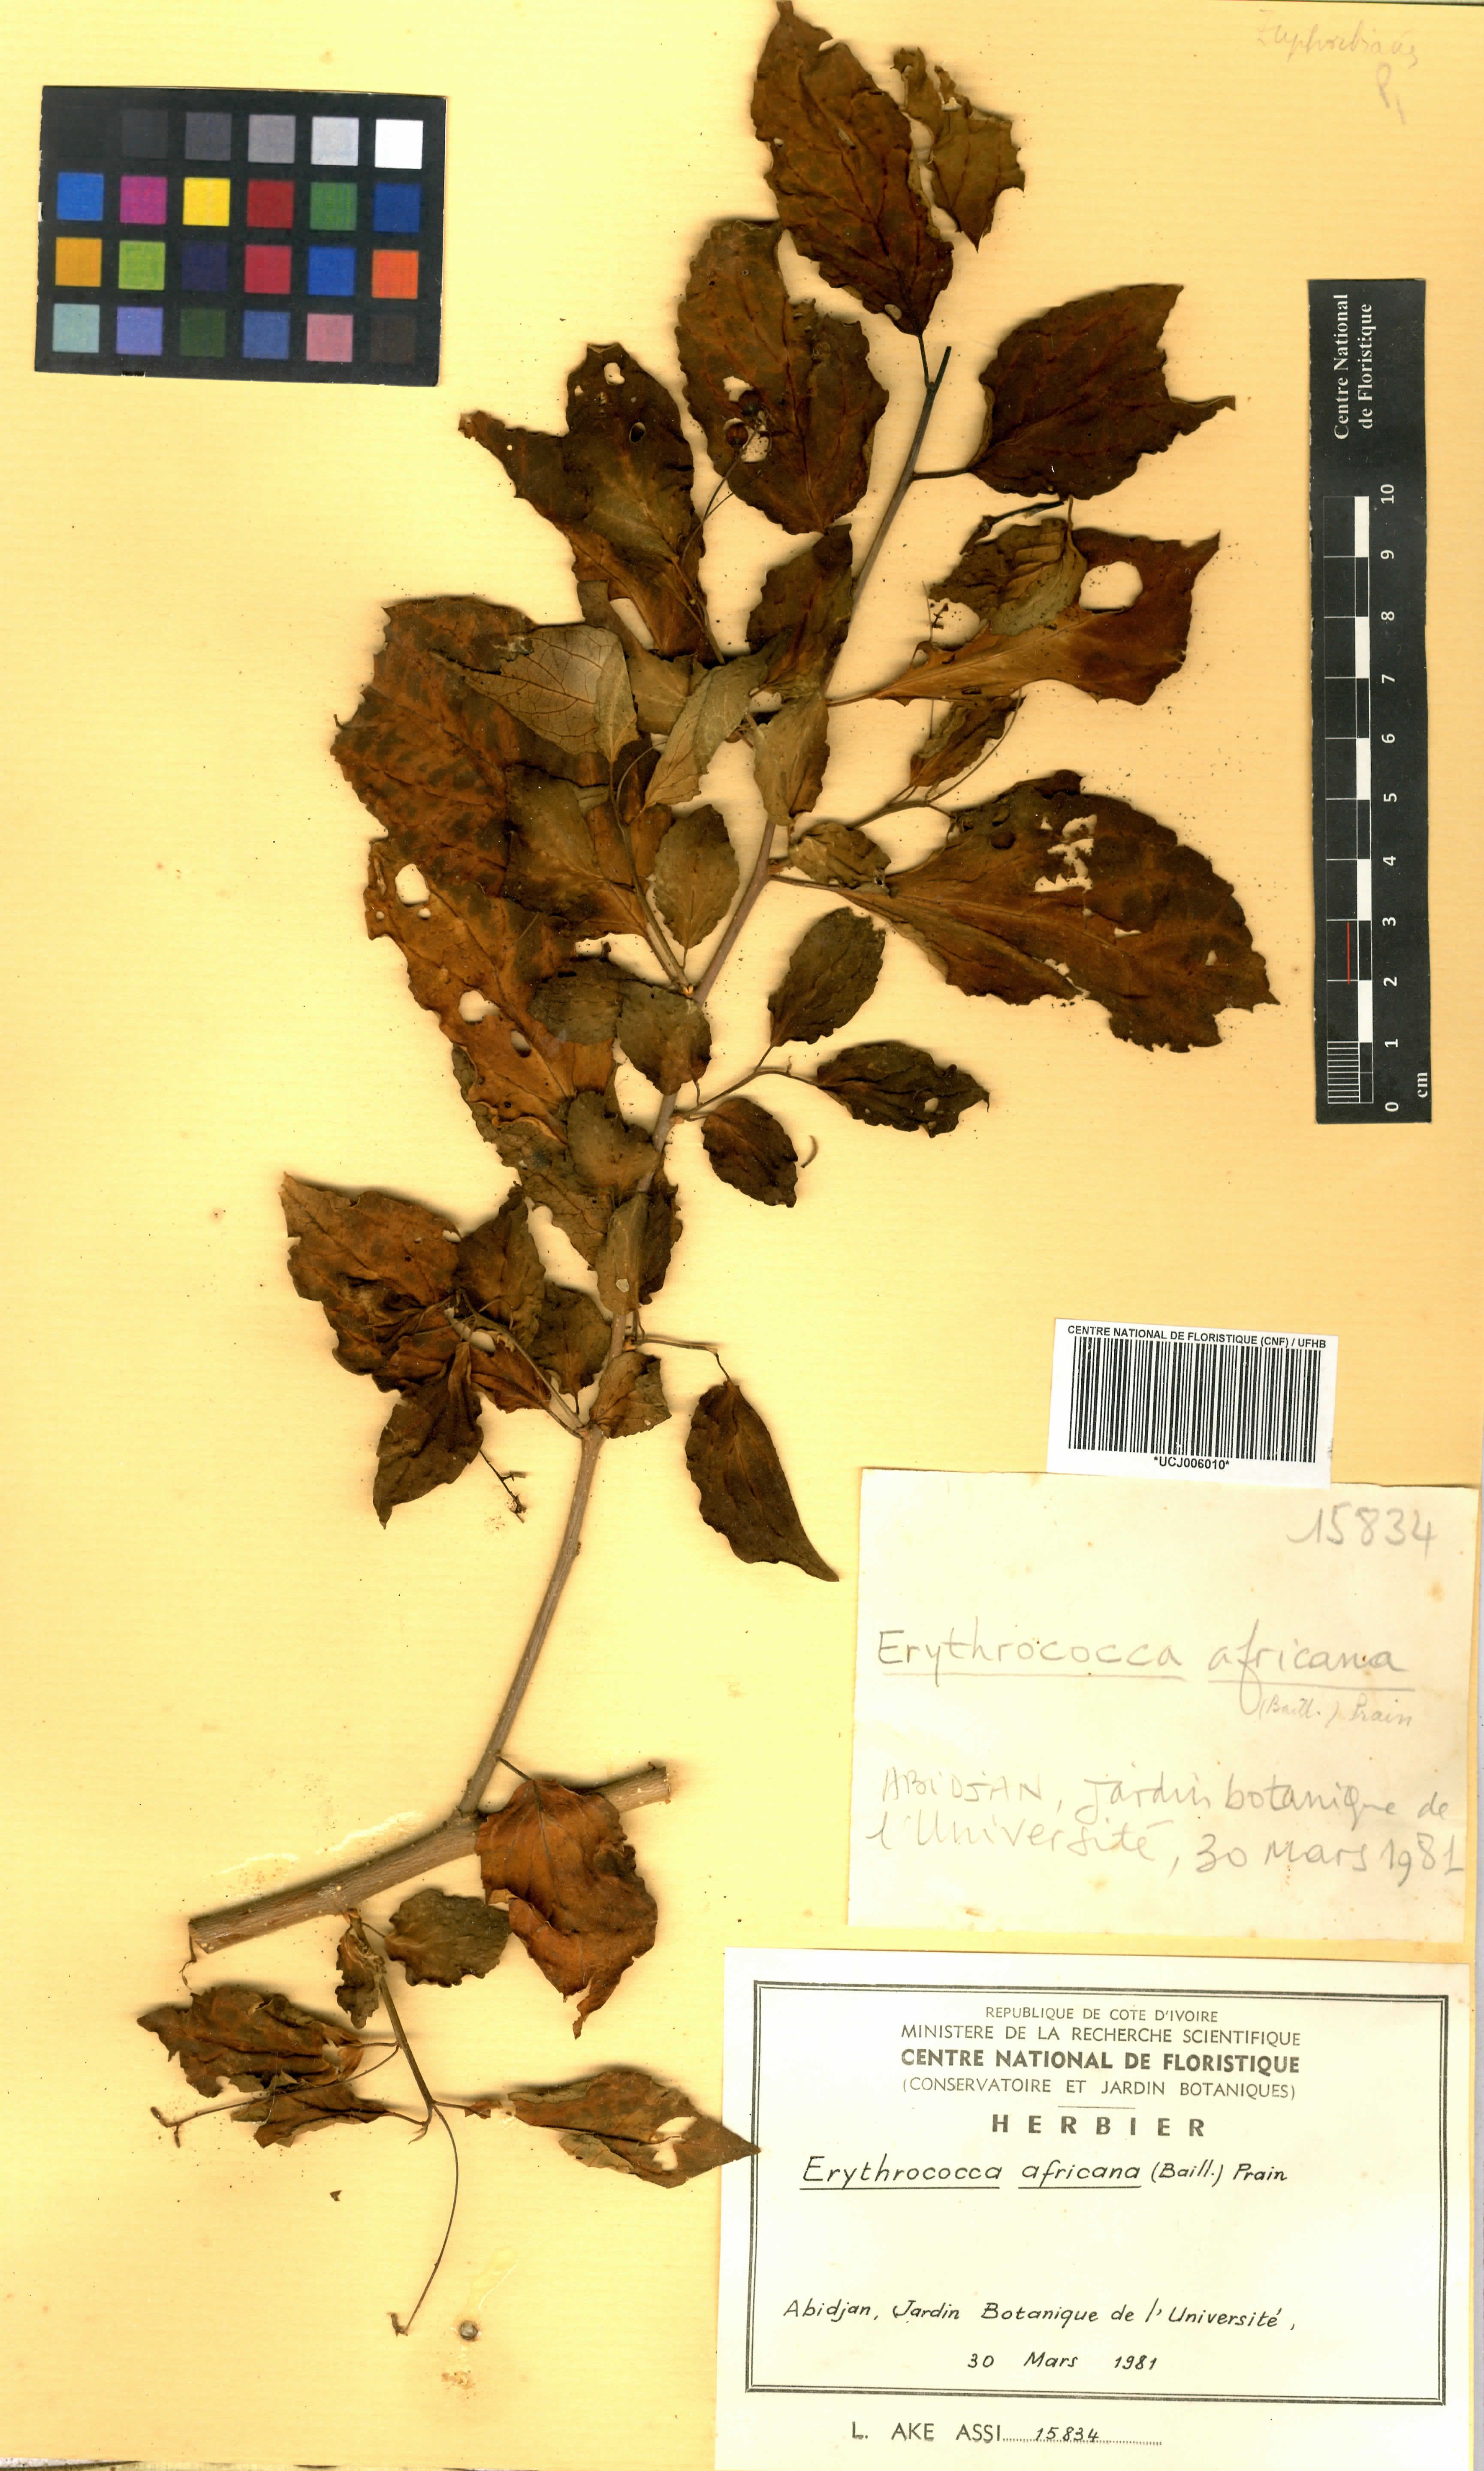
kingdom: Plantae
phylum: Tracheophyta
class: Magnoliopsida
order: Malpighiales
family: Euphorbiaceae
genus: Erythrococca
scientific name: Erythrococca africana
